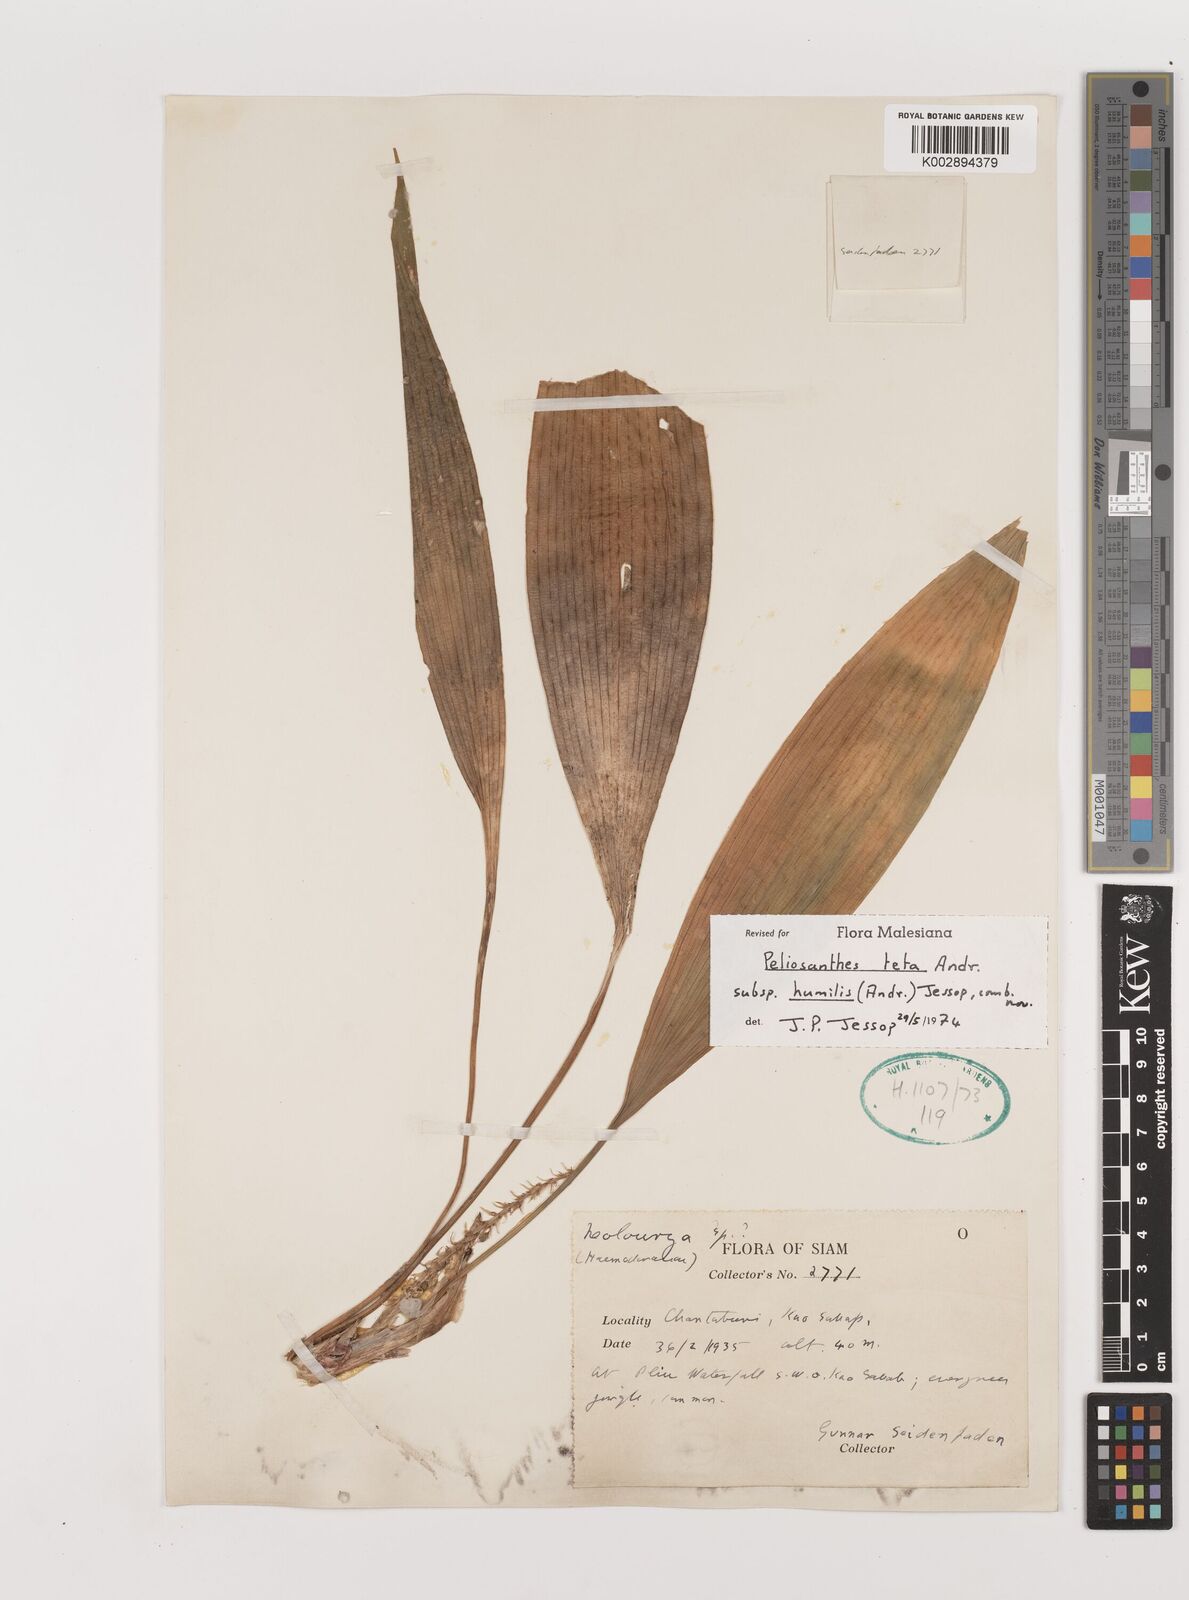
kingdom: Plantae
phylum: Tracheophyta
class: Liliopsida
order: Asparagales
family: Asparagaceae
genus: Peliosanthes
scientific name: Peliosanthes teta
